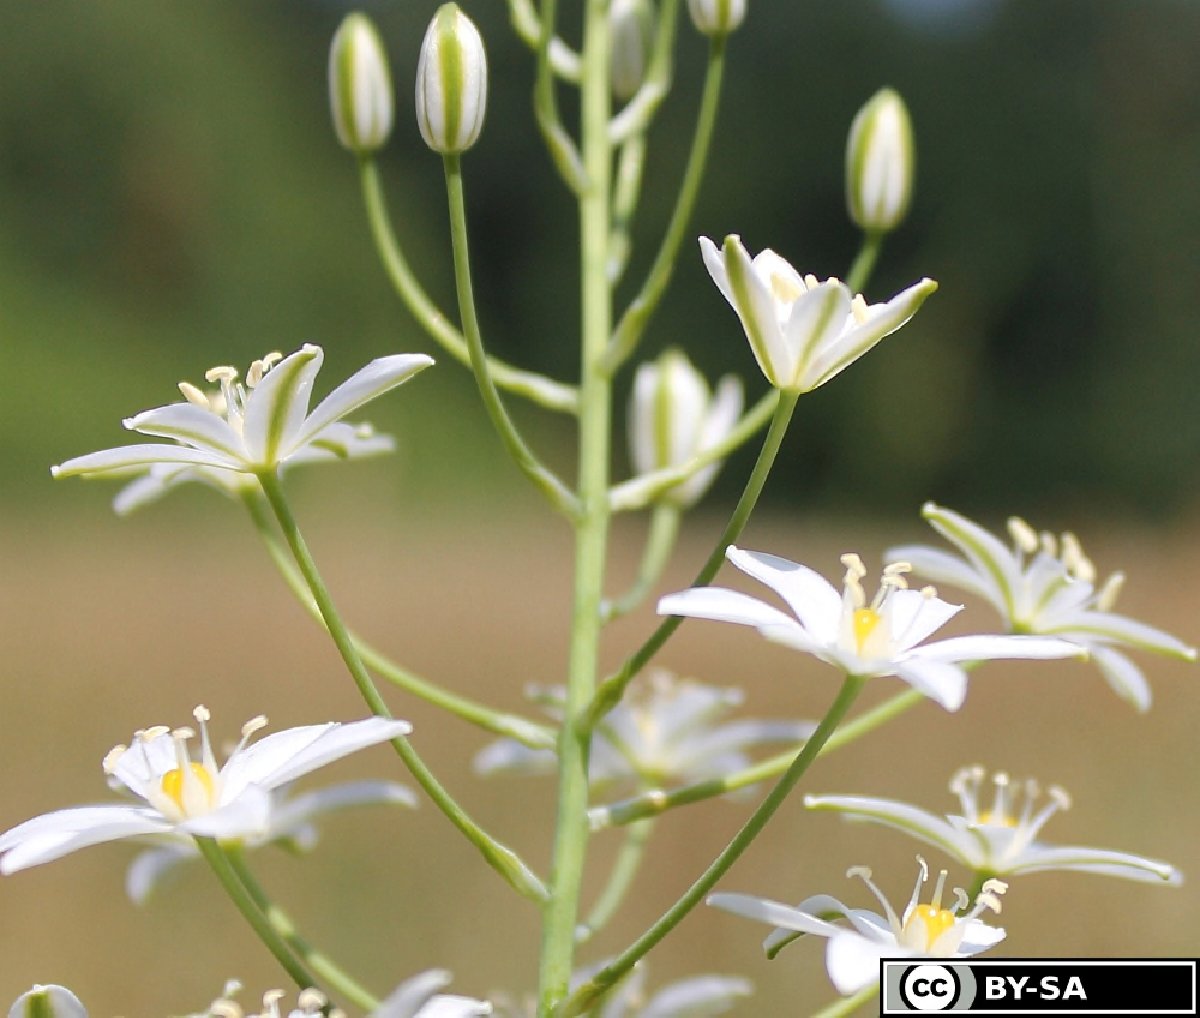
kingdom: Plantae
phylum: Tracheophyta
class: Liliopsida
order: Asparagales
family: Asparagaceae
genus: Ornithogalum
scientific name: Ornithogalum pyramidale
